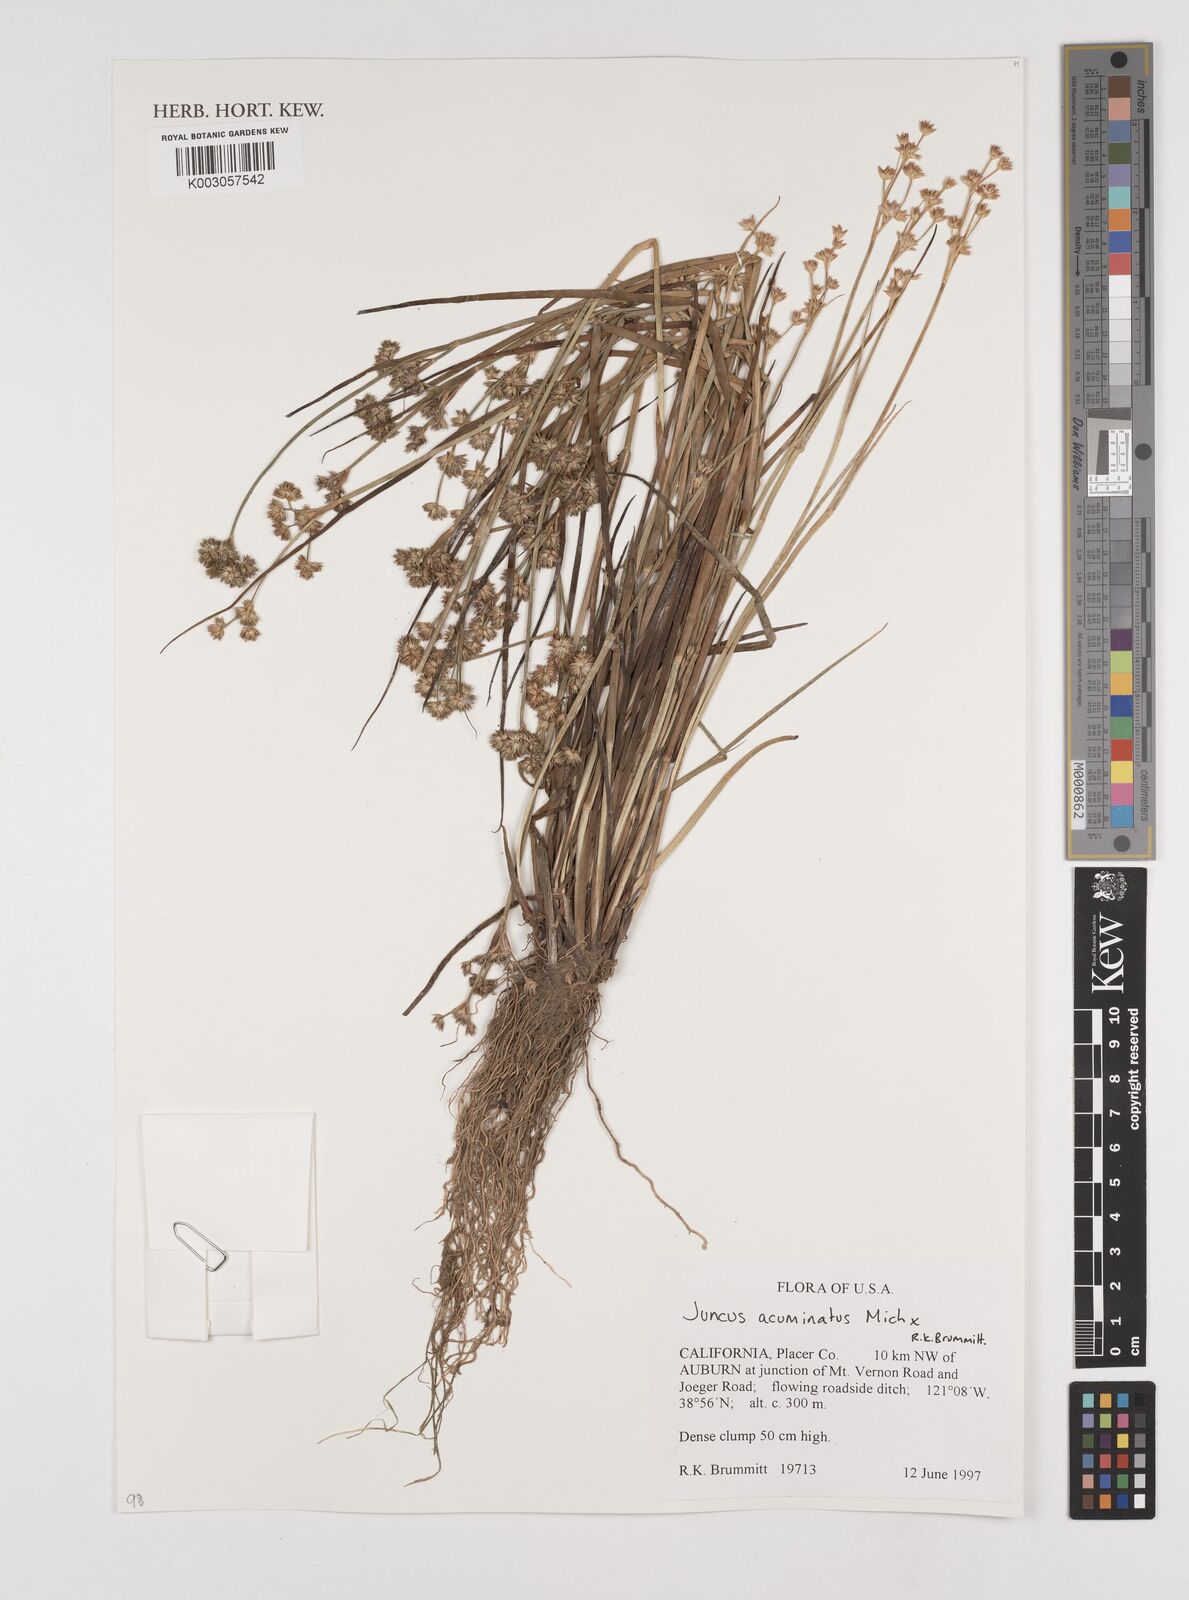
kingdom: Plantae
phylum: Tracheophyta
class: Liliopsida
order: Poales
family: Juncaceae
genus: Juncus
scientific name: Juncus acuminatus
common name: Knotty-leaved rush
